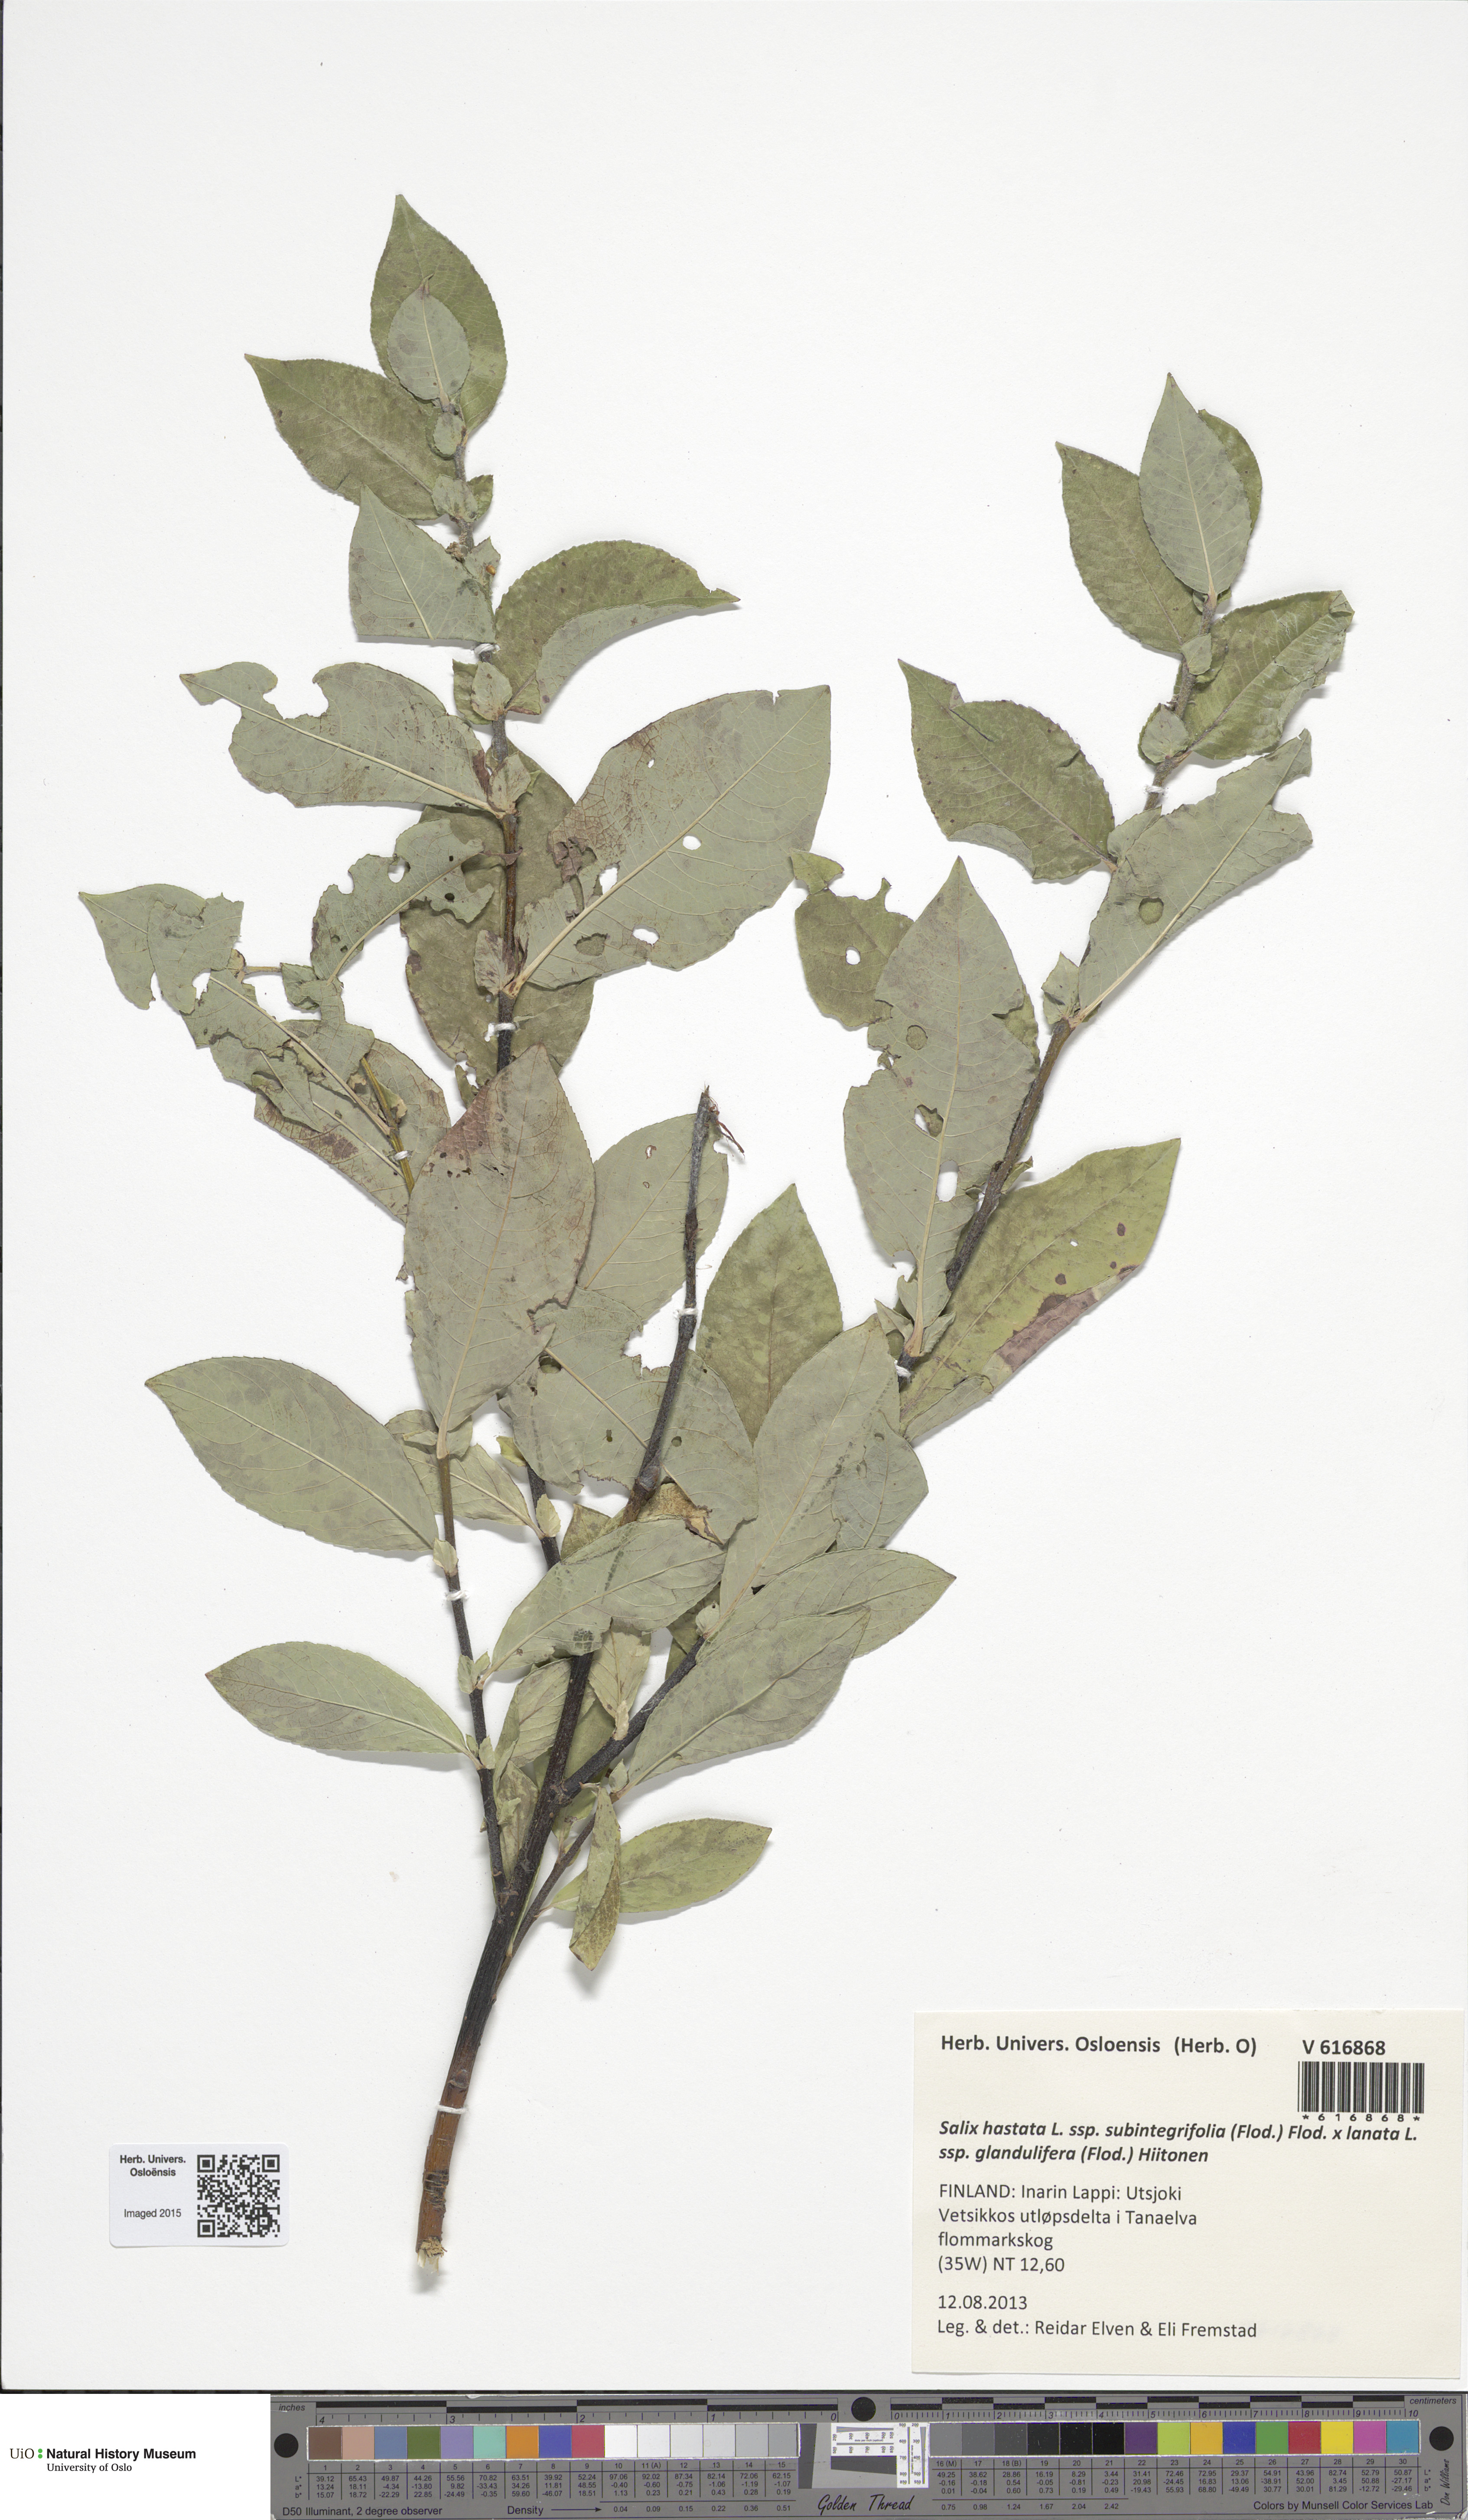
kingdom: Plantae
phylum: Tracheophyta
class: Magnoliopsida
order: Malpighiales
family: Salicaceae
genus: Salix
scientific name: Salix
